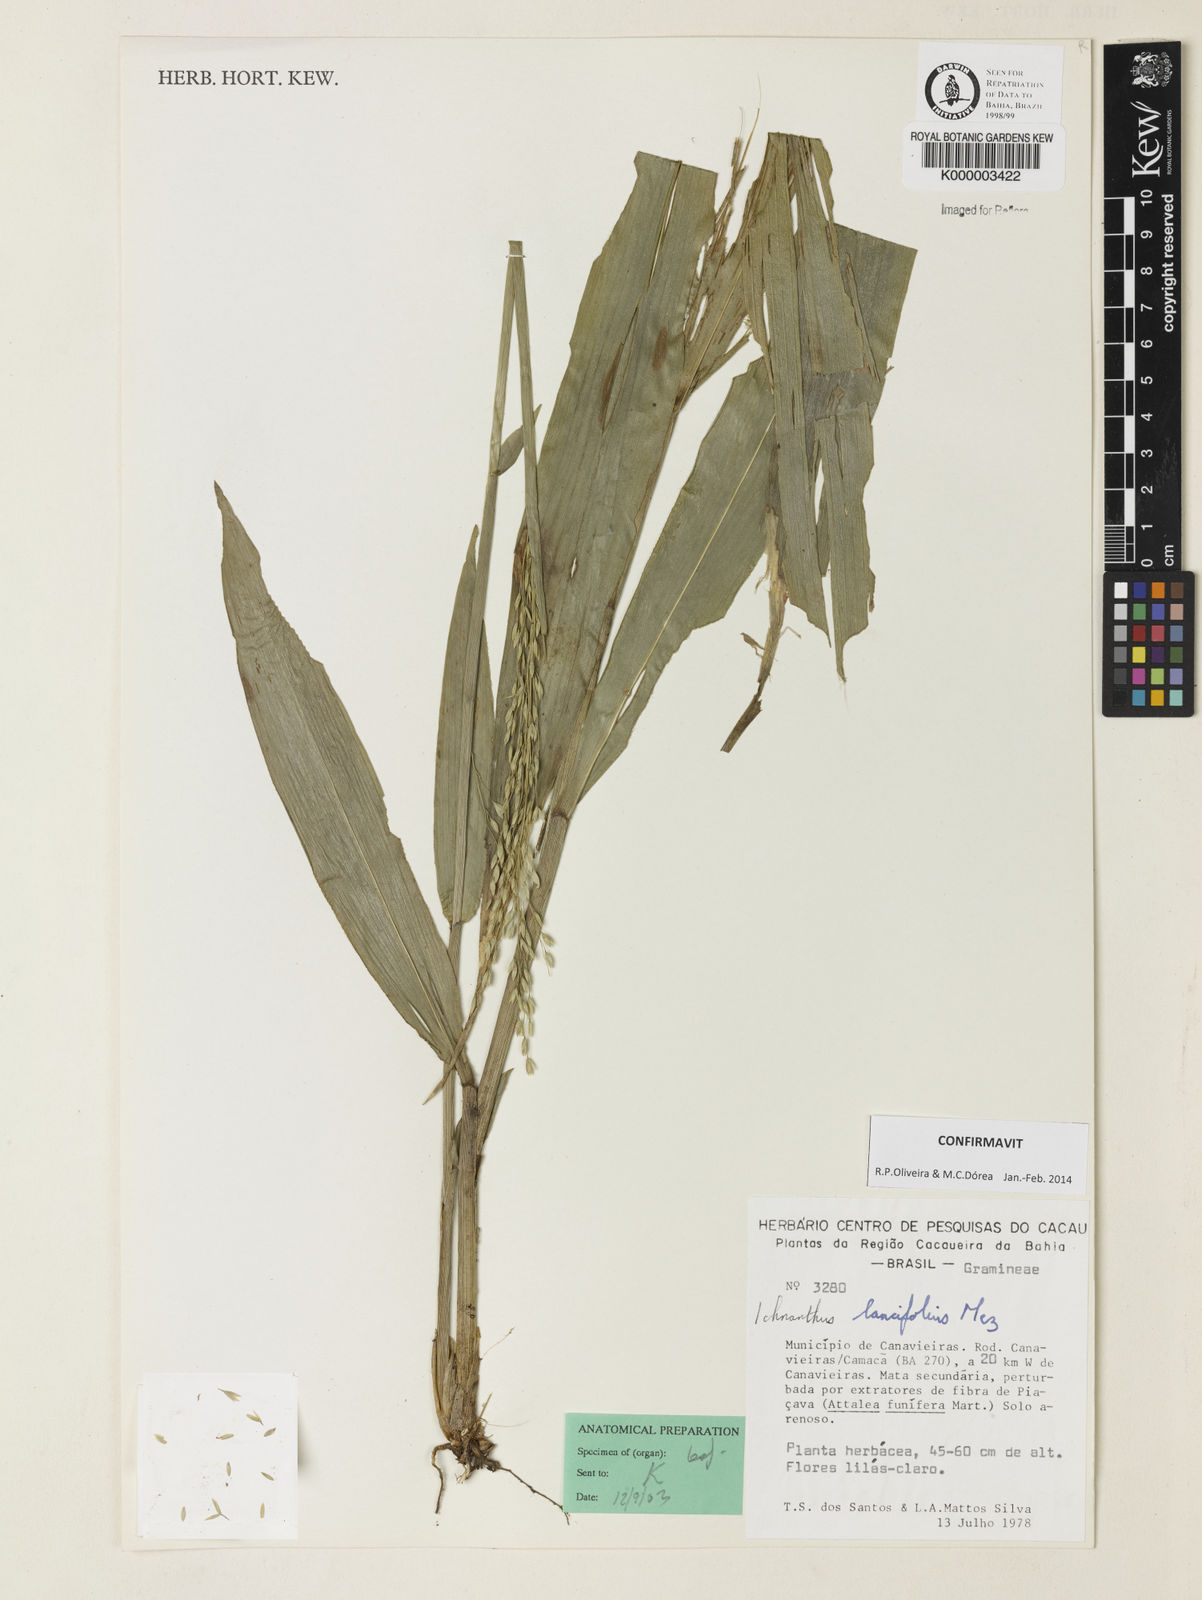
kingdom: Plantae
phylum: Tracheophyta
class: Liliopsida
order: Poales
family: Poaceae
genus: Ichnanthus
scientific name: Ichnanthus lancifolius
